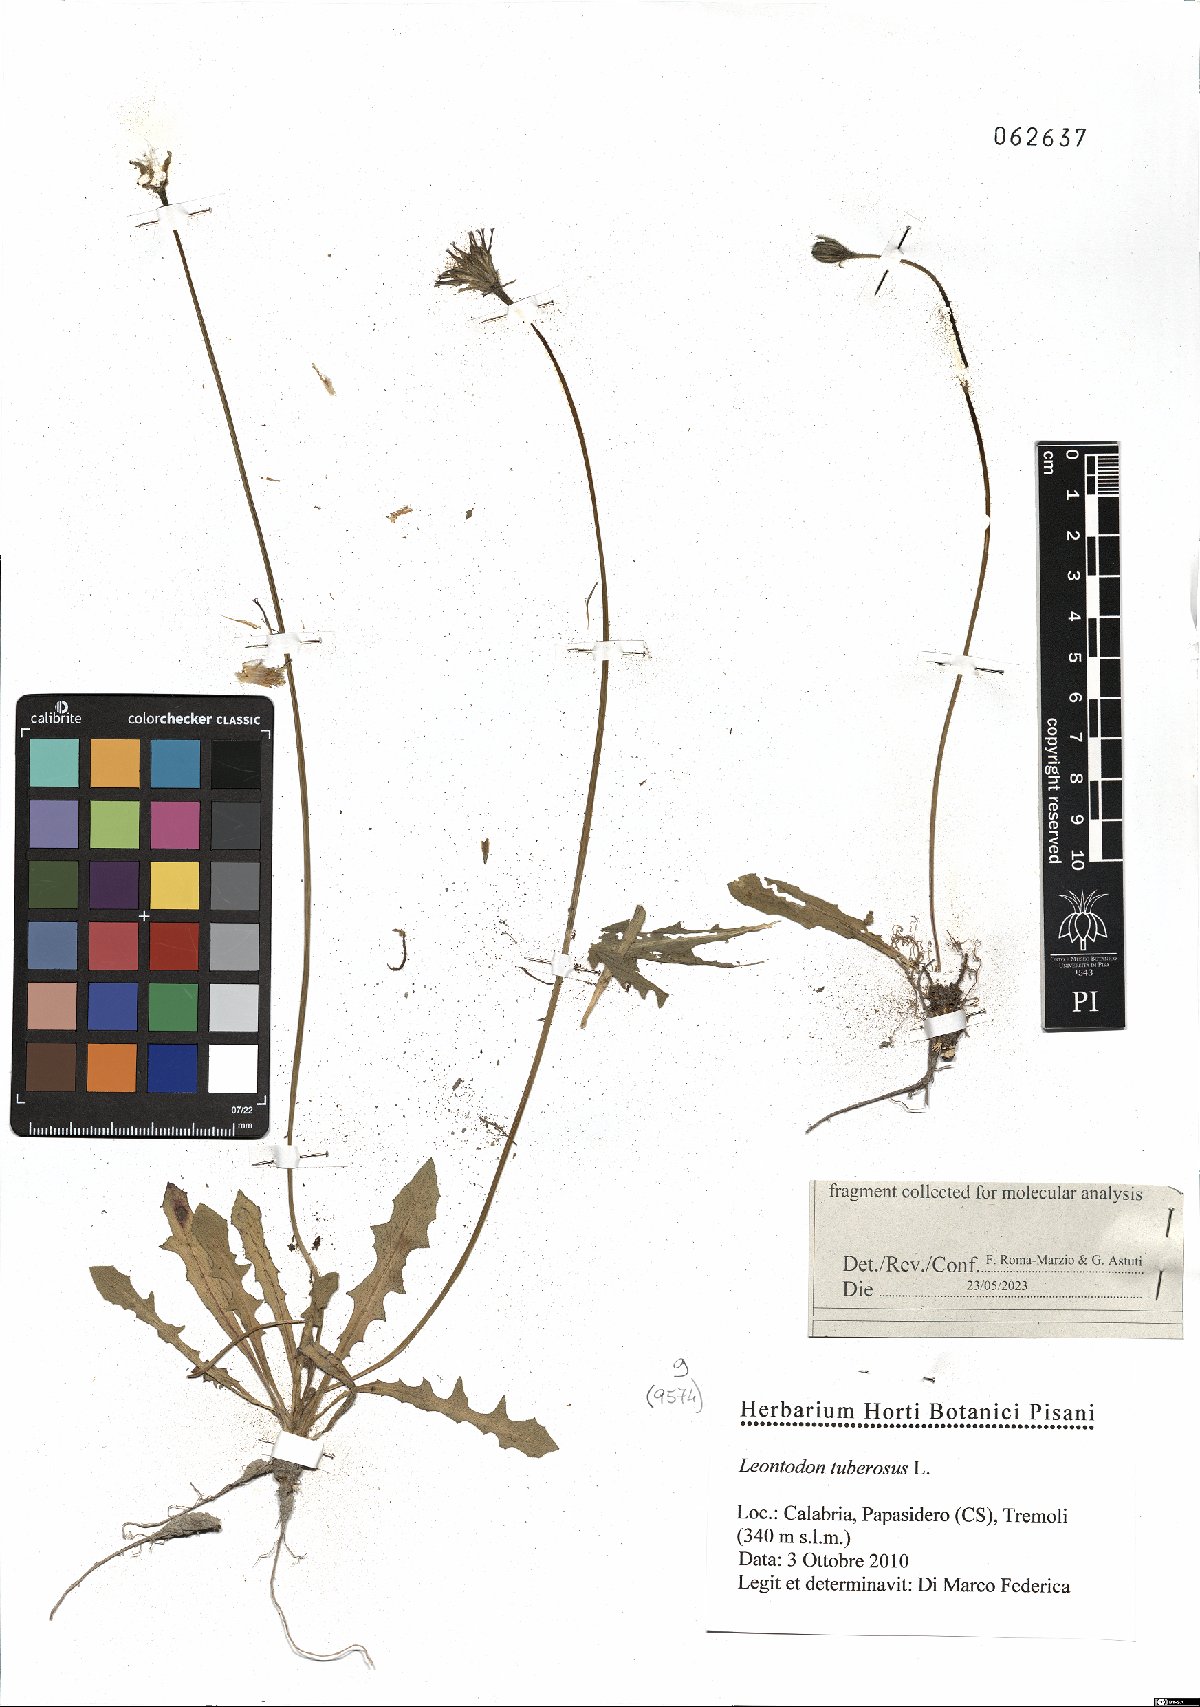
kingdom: Plantae
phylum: Tracheophyta
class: Magnoliopsida
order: Asterales
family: Asteraceae
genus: Thrincia
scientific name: Thrincia tuberosa
